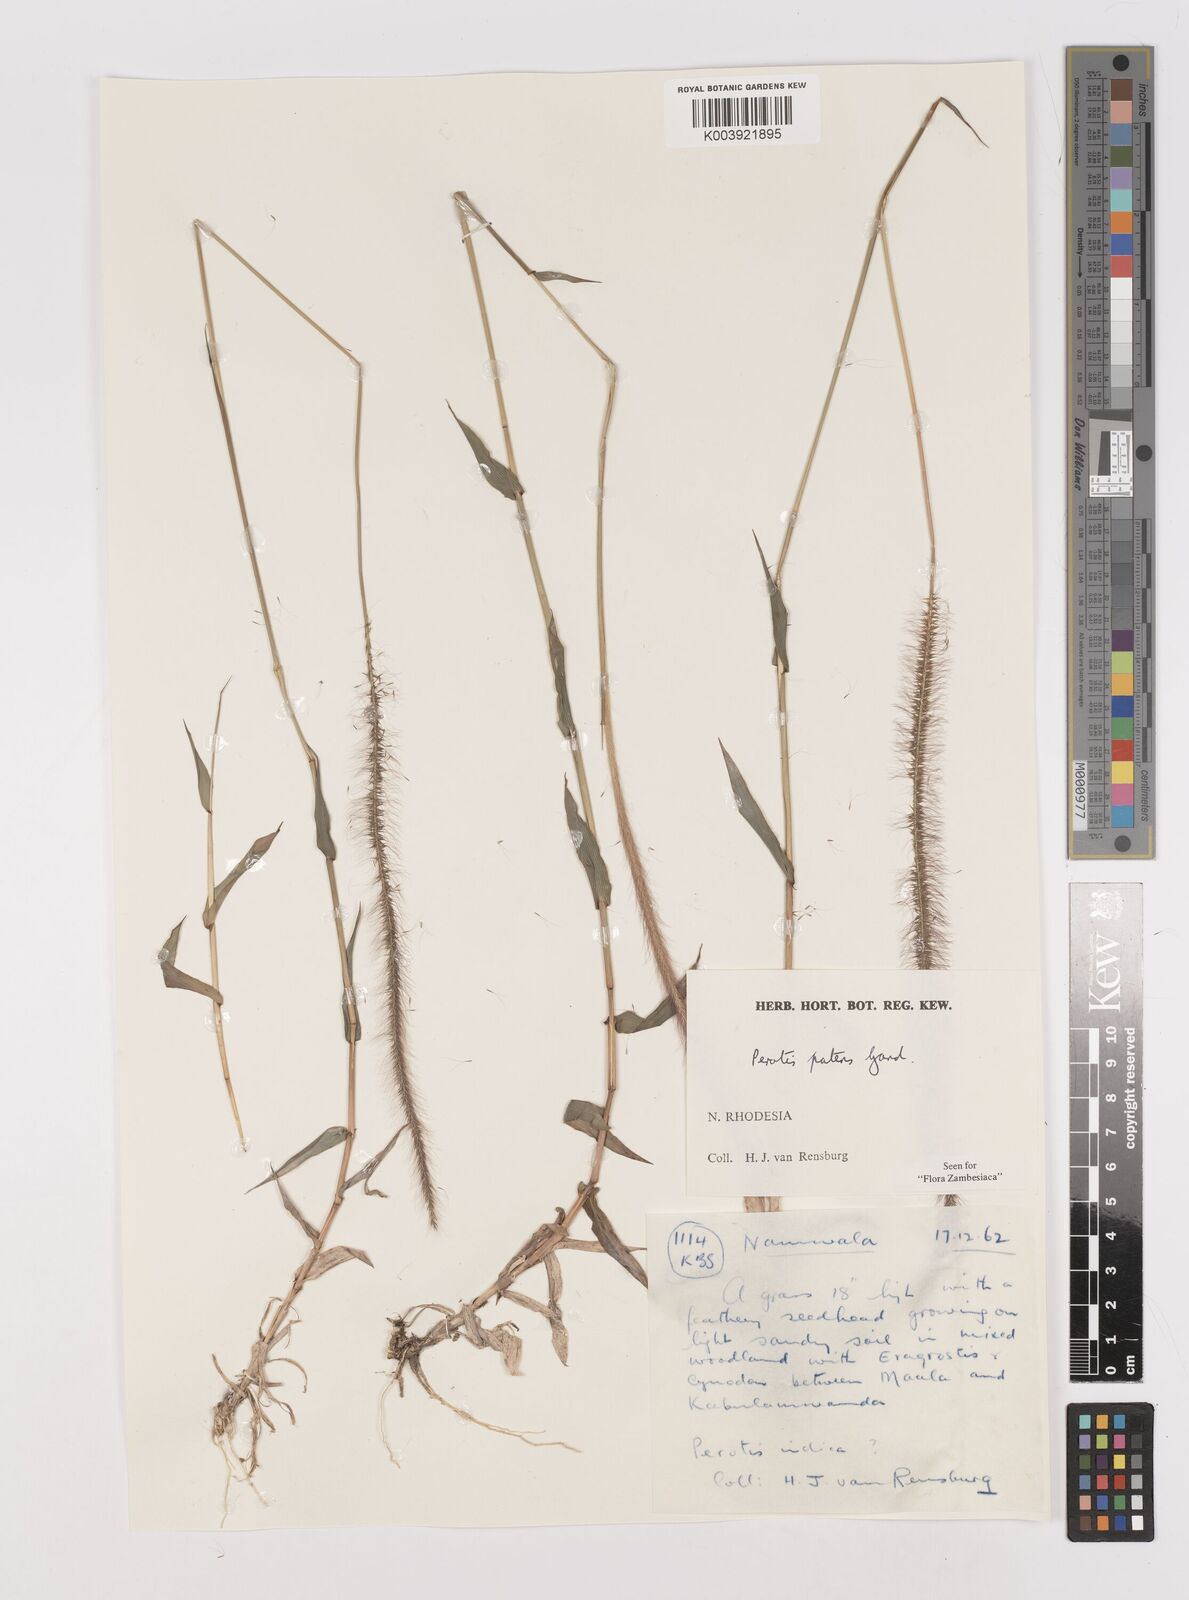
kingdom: Plantae
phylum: Tracheophyta
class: Liliopsida
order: Poales
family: Poaceae
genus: Perotis
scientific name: Perotis patens
